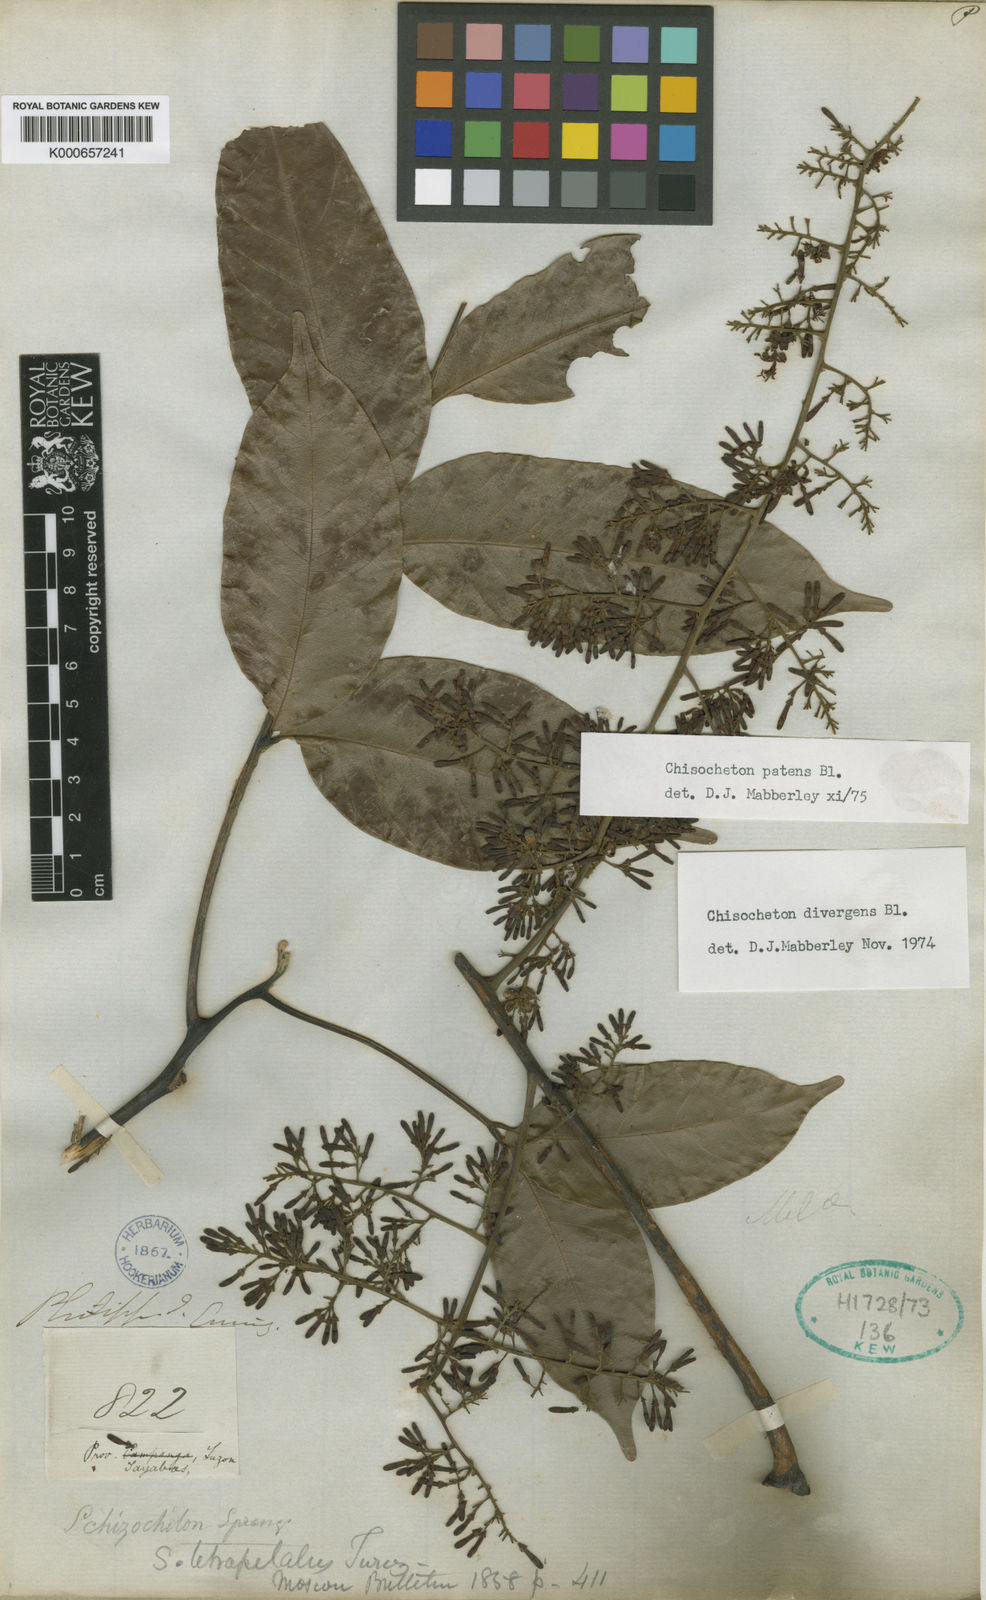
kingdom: Plantae
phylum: Tracheophyta
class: Magnoliopsida
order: Sapindales
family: Meliaceae
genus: Chisocheton
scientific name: Chisocheton patens
